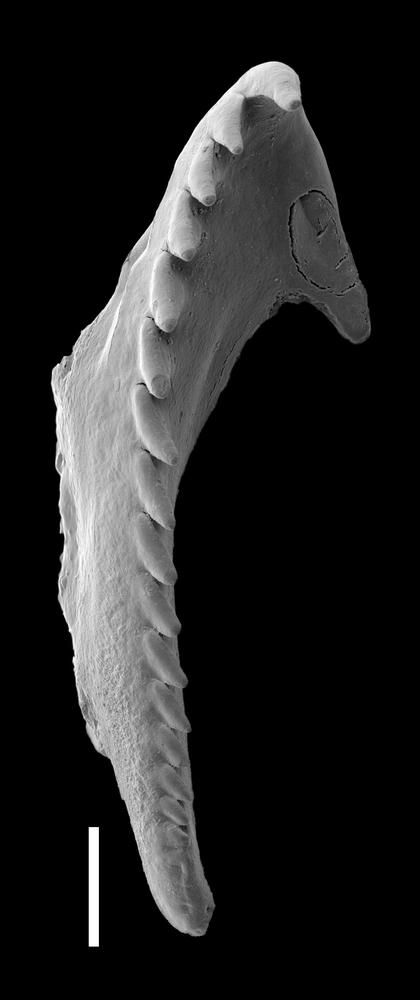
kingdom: Animalia
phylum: Annelida
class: Polychaeta
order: Eunicida
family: Polychaeturidae
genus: Pteropelta
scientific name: Pteropelta gladiata
